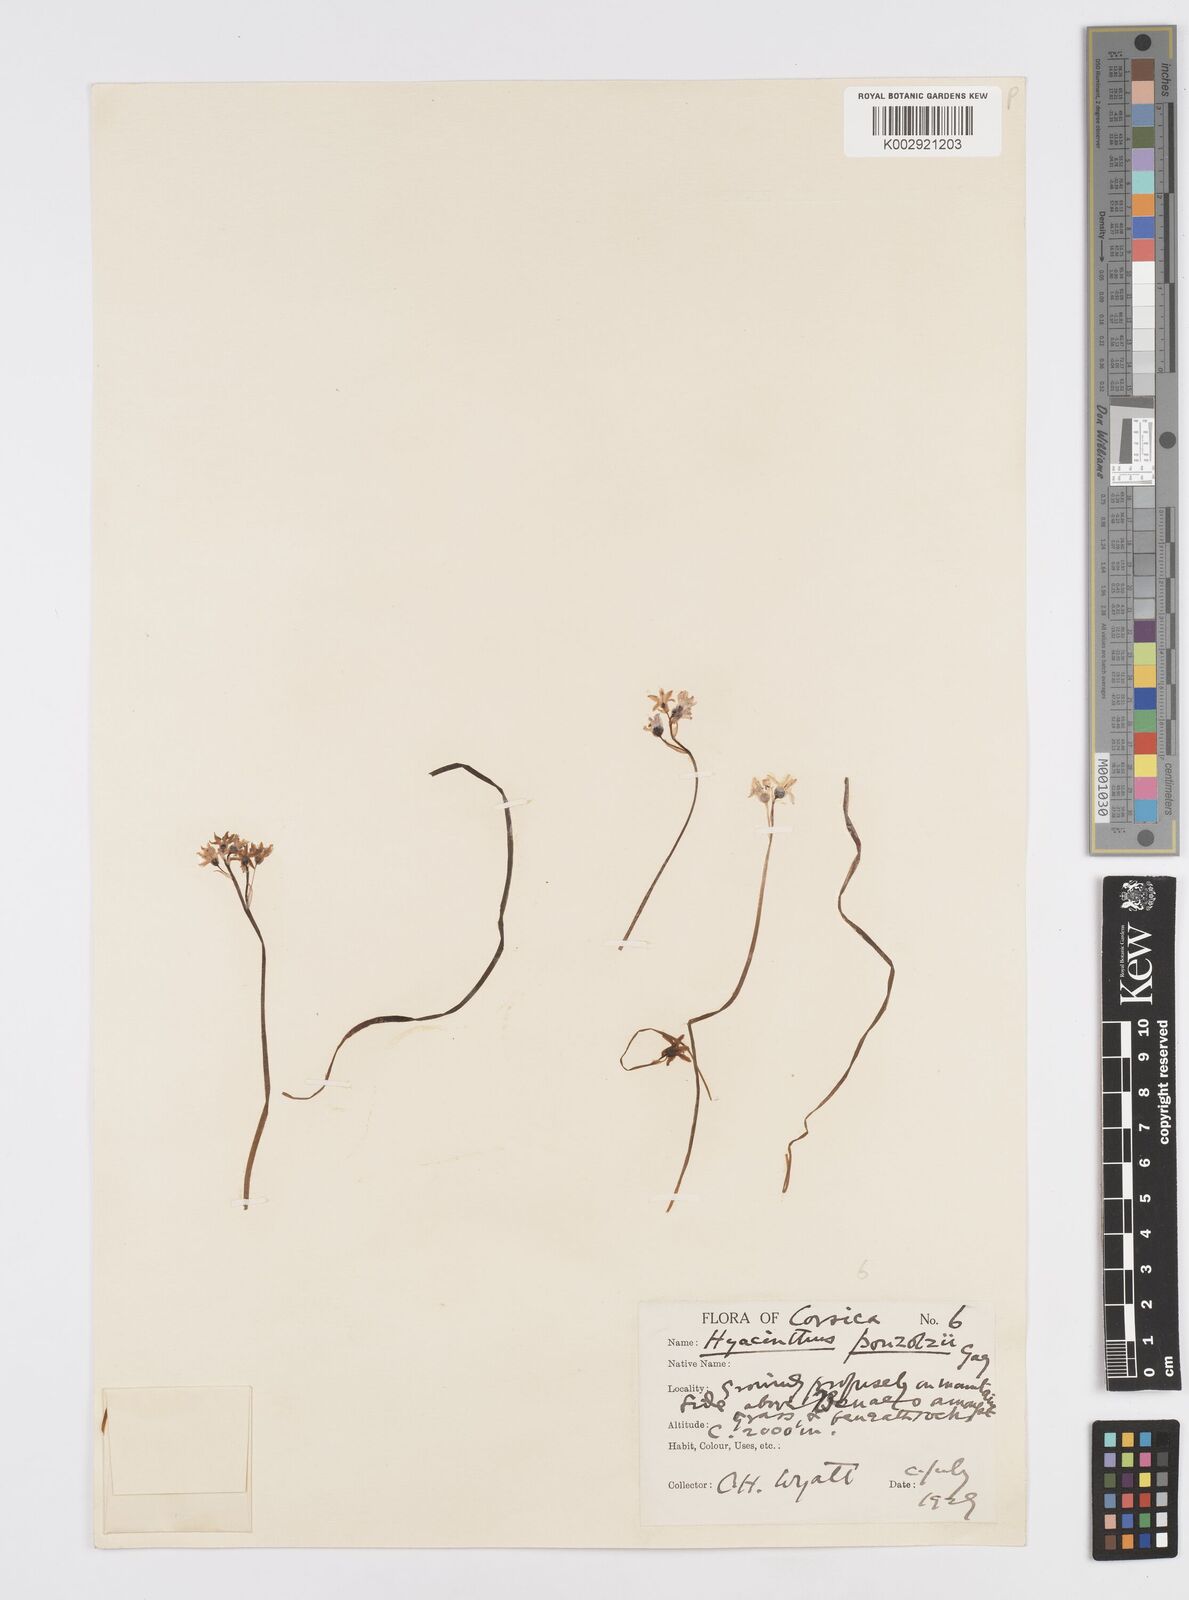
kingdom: Plantae
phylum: Tracheophyta
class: Liliopsida
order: Asparagales
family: Asparagaceae
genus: Brimeura
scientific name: Brimeura fastigiata
